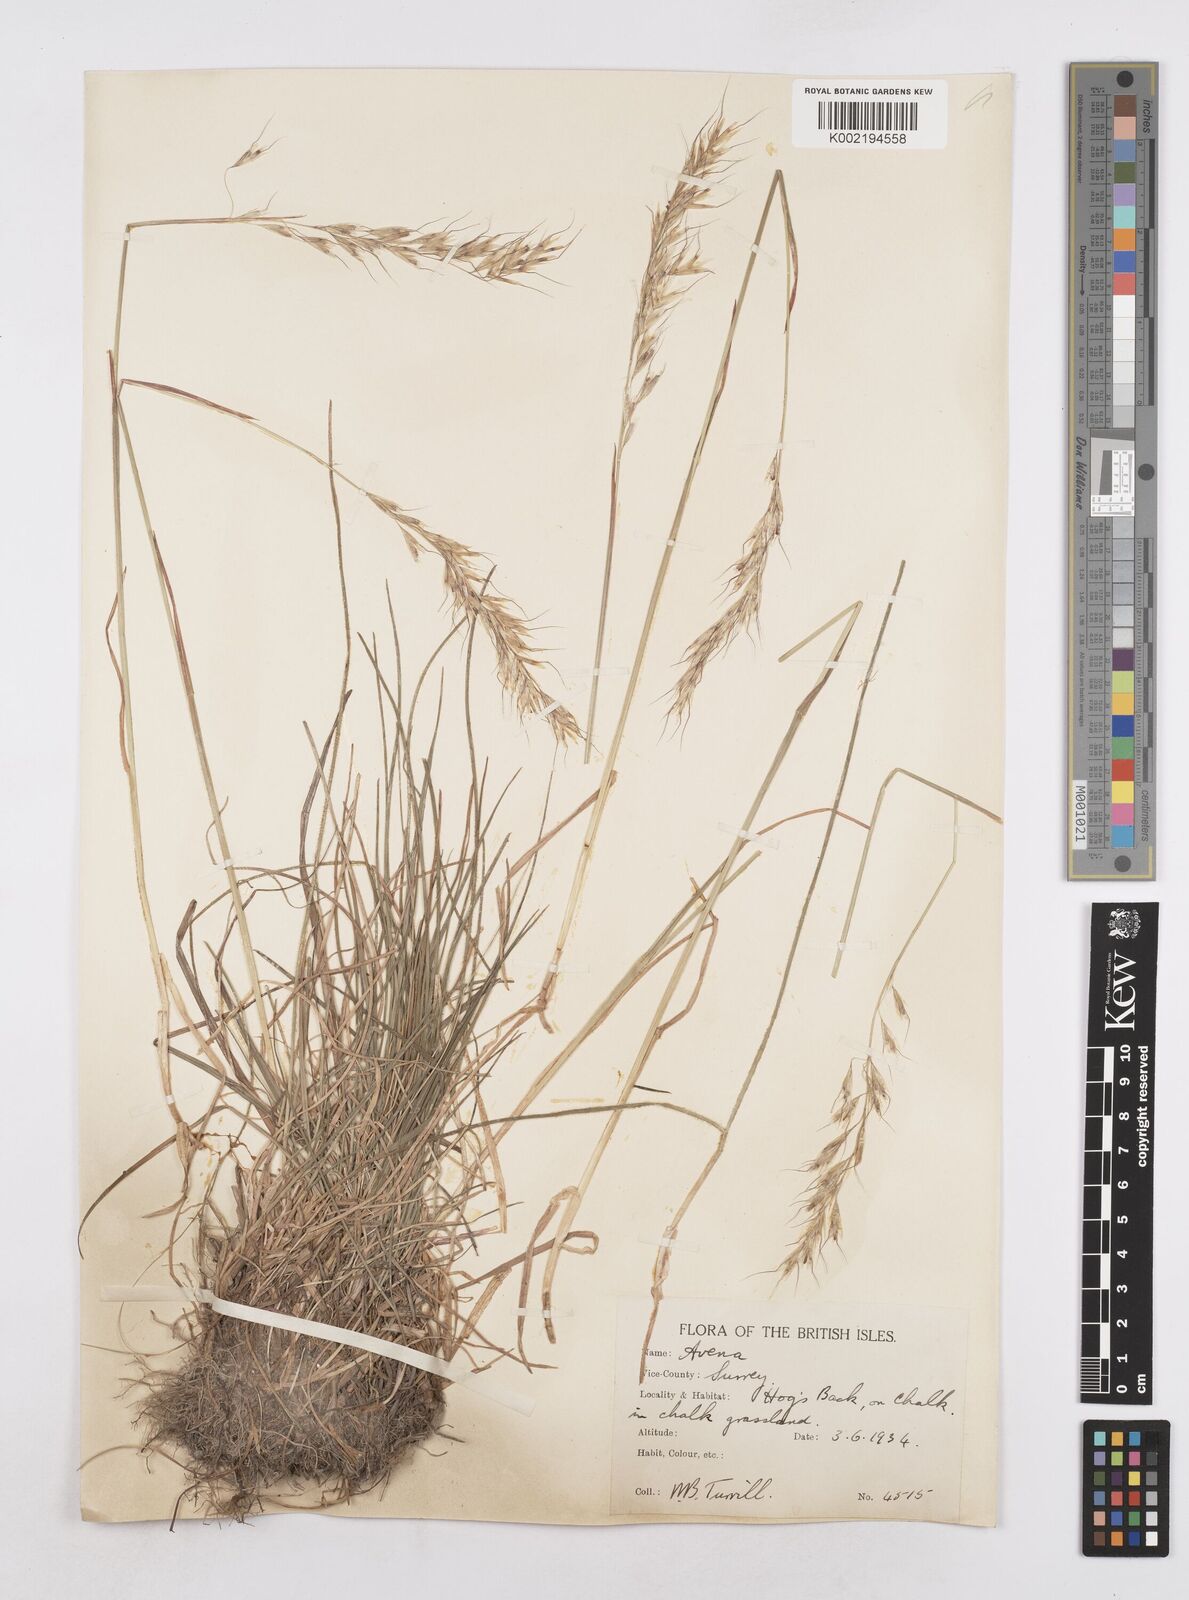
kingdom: Plantae
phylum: Tracheophyta
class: Liliopsida
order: Poales
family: Poaceae
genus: Avenula
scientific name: Avenula pubescens
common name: Downy alpine oatgrass
